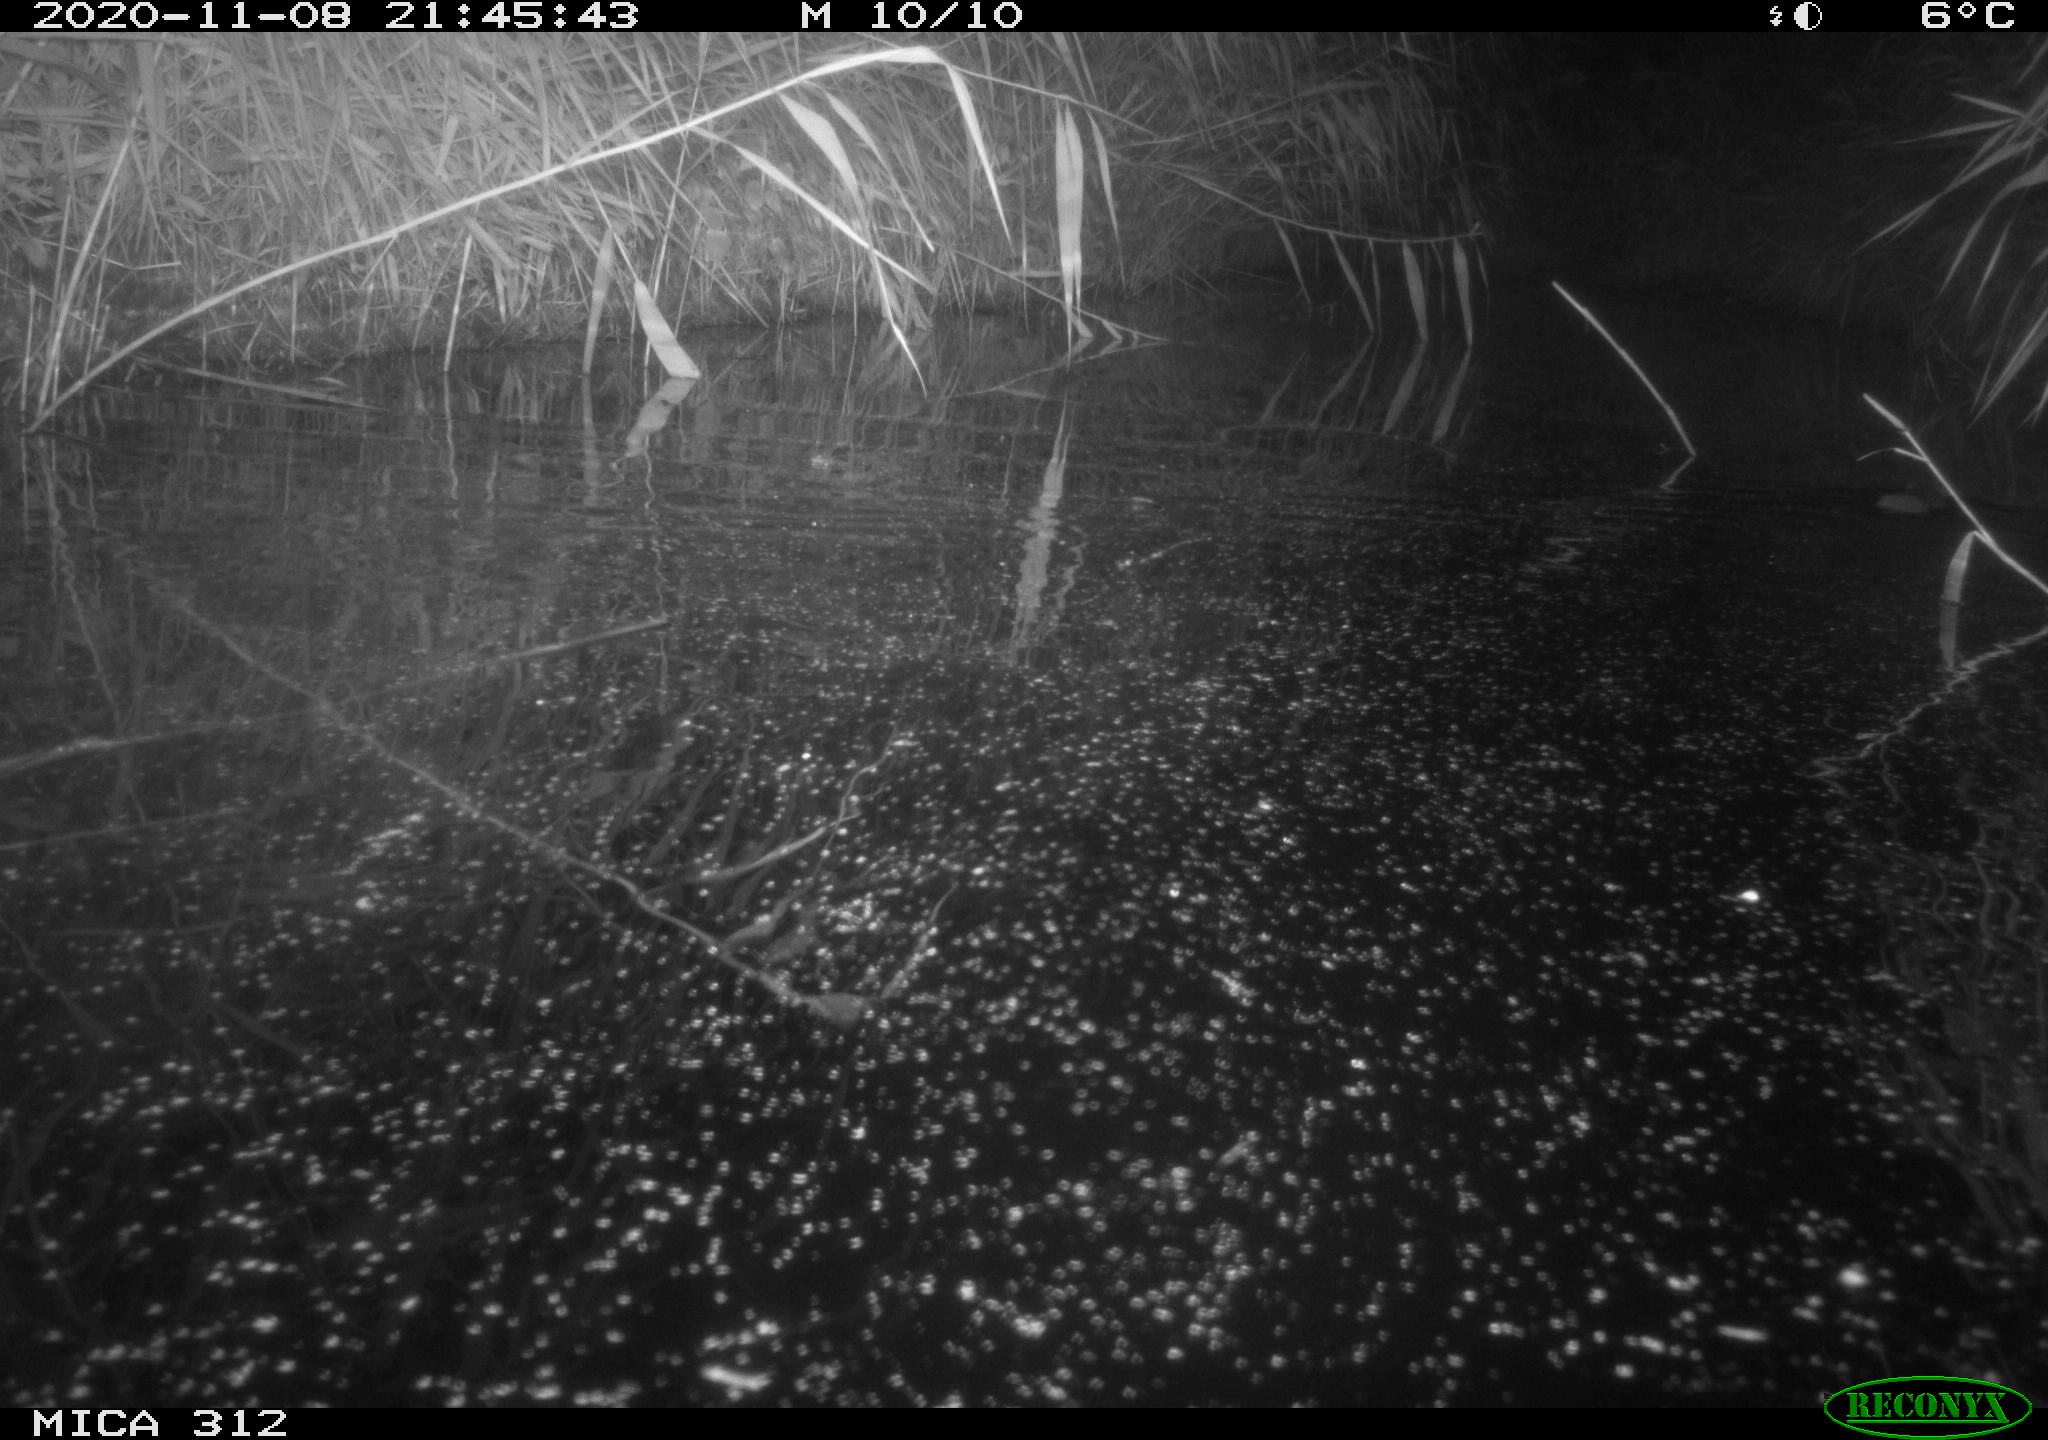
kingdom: Animalia
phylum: Chordata
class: Mammalia
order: Rodentia
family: Muridae
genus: Rattus
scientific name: Rattus norvegicus
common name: Brown rat
